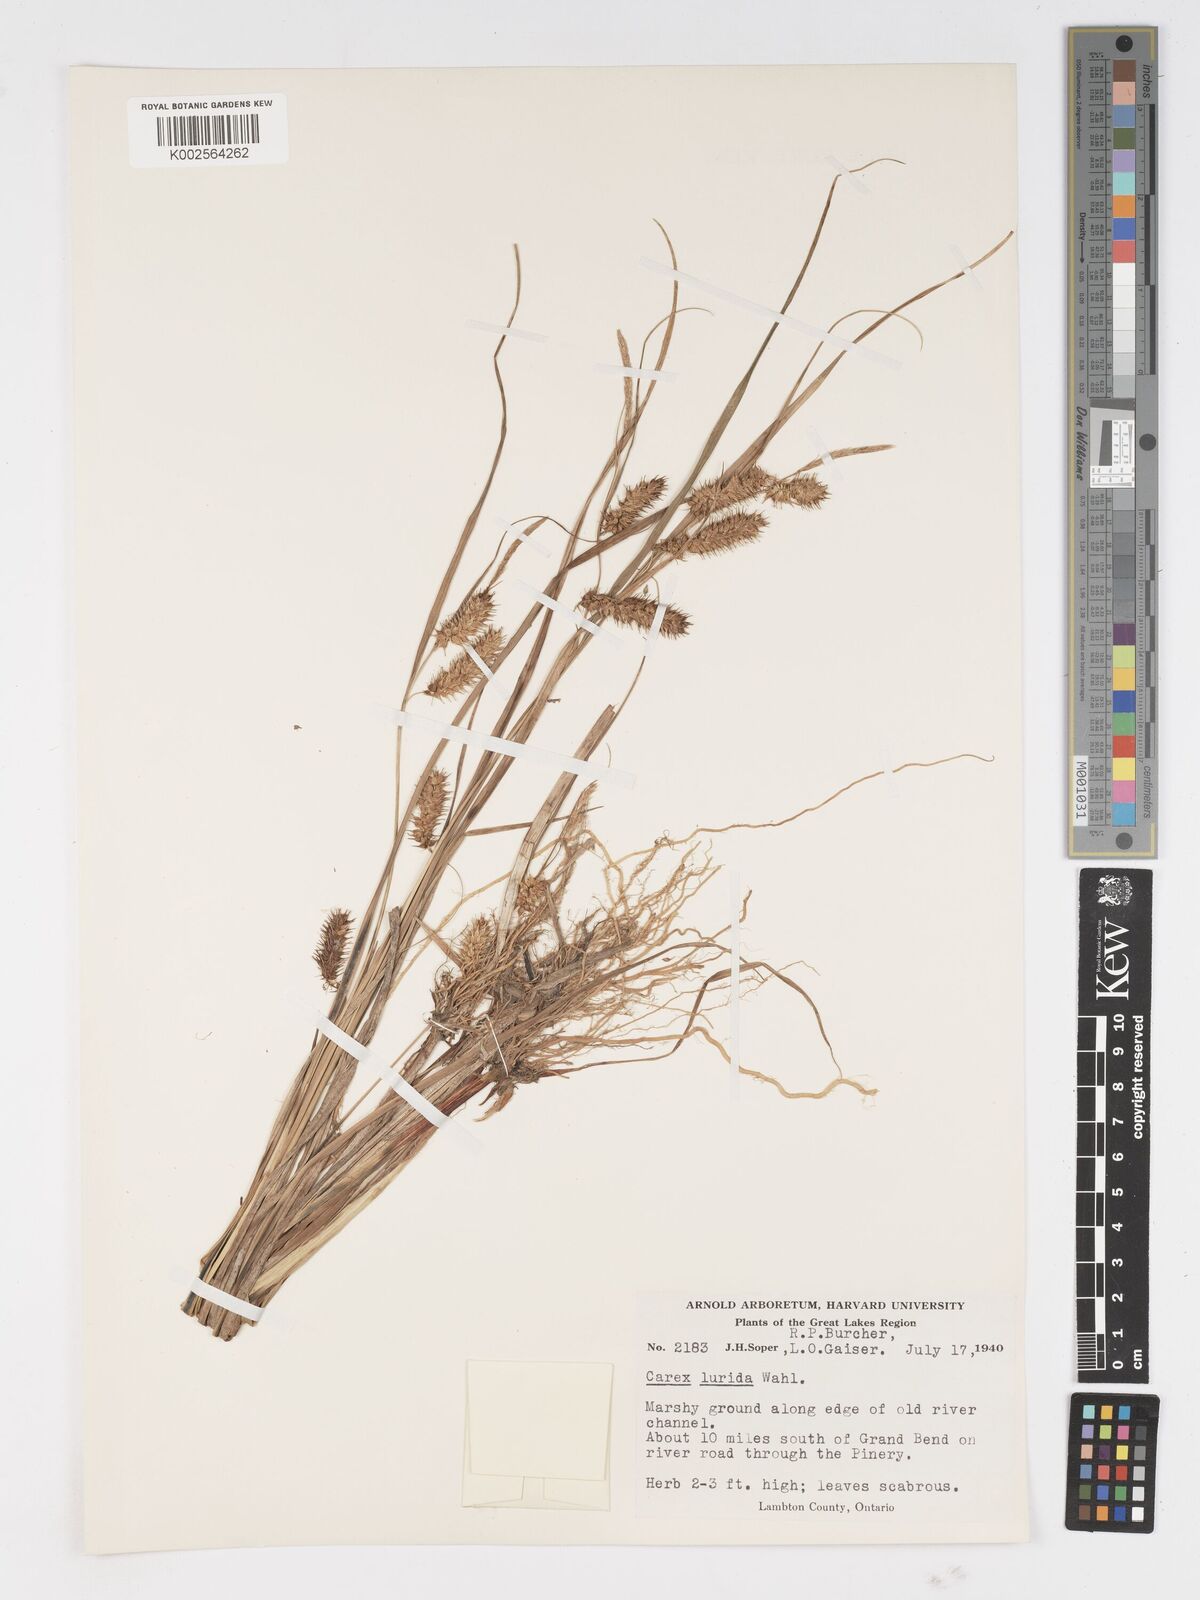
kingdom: Plantae
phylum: Tracheophyta
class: Liliopsida
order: Poales
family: Cyperaceae
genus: Carex
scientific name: Carex lurida
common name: Sallow sedge
